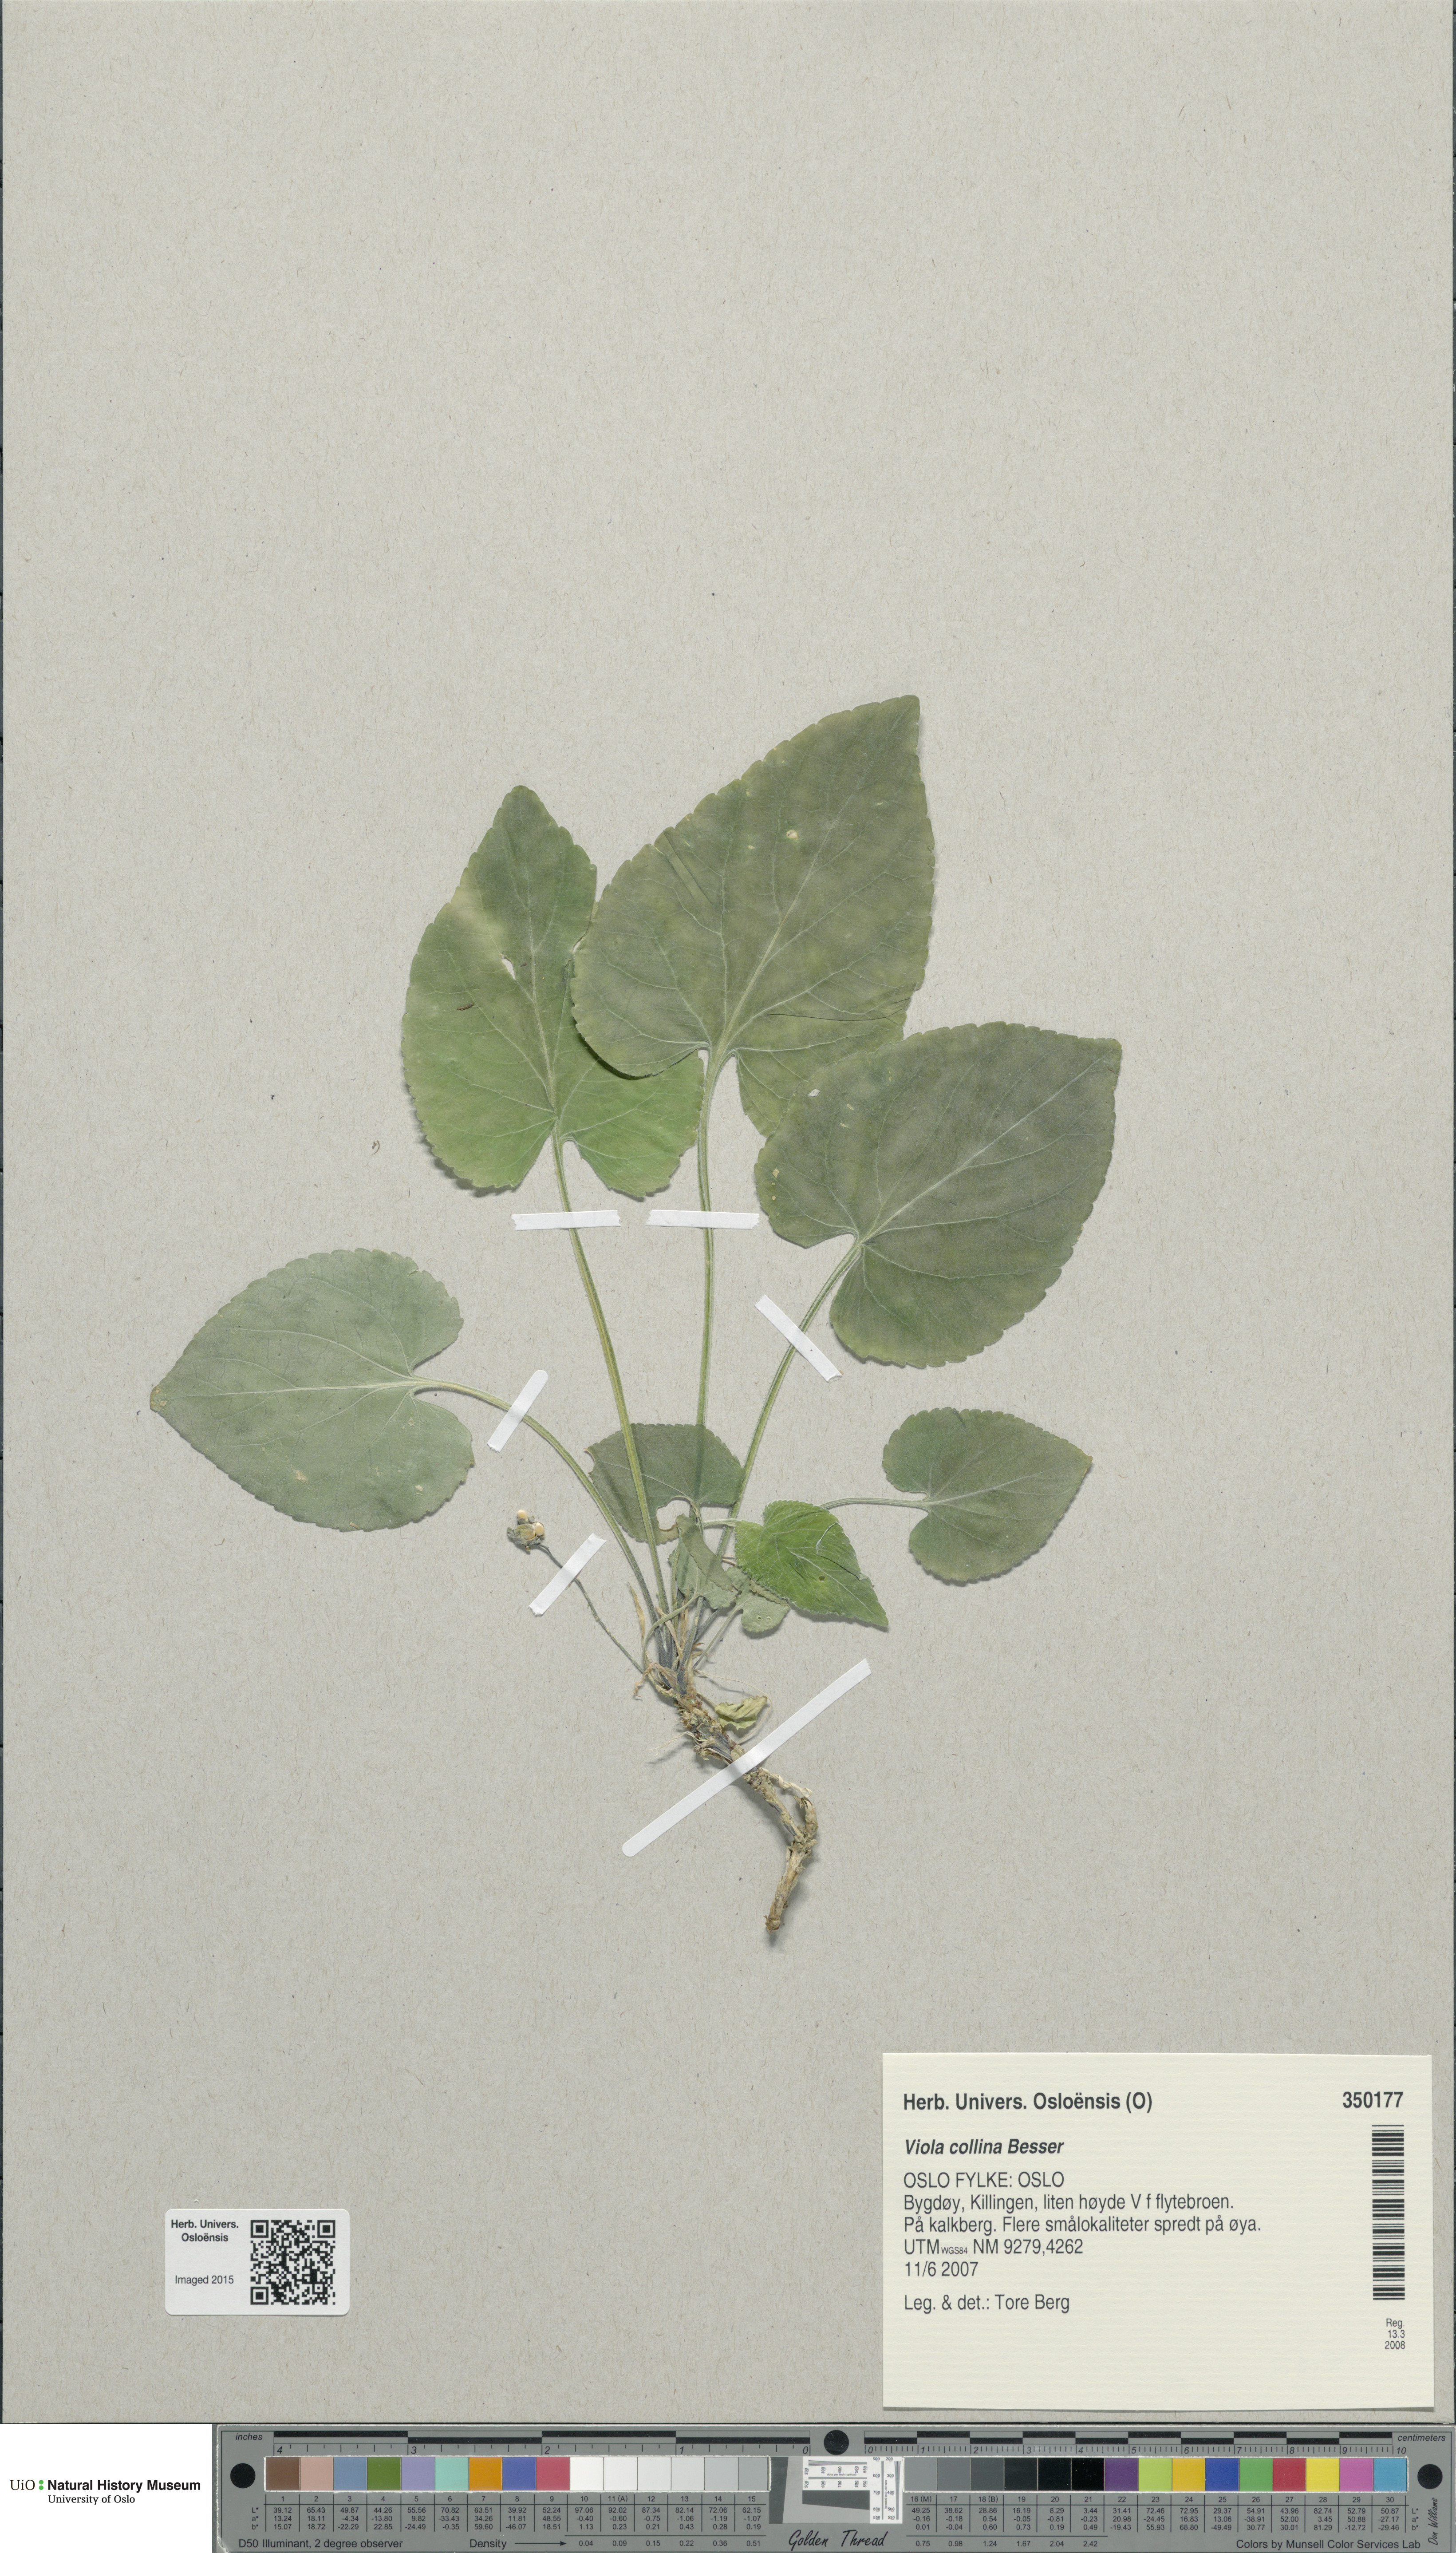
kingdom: Plantae
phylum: Tracheophyta
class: Magnoliopsida
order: Malpighiales
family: Violaceae
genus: Viola
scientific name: Viola collina
